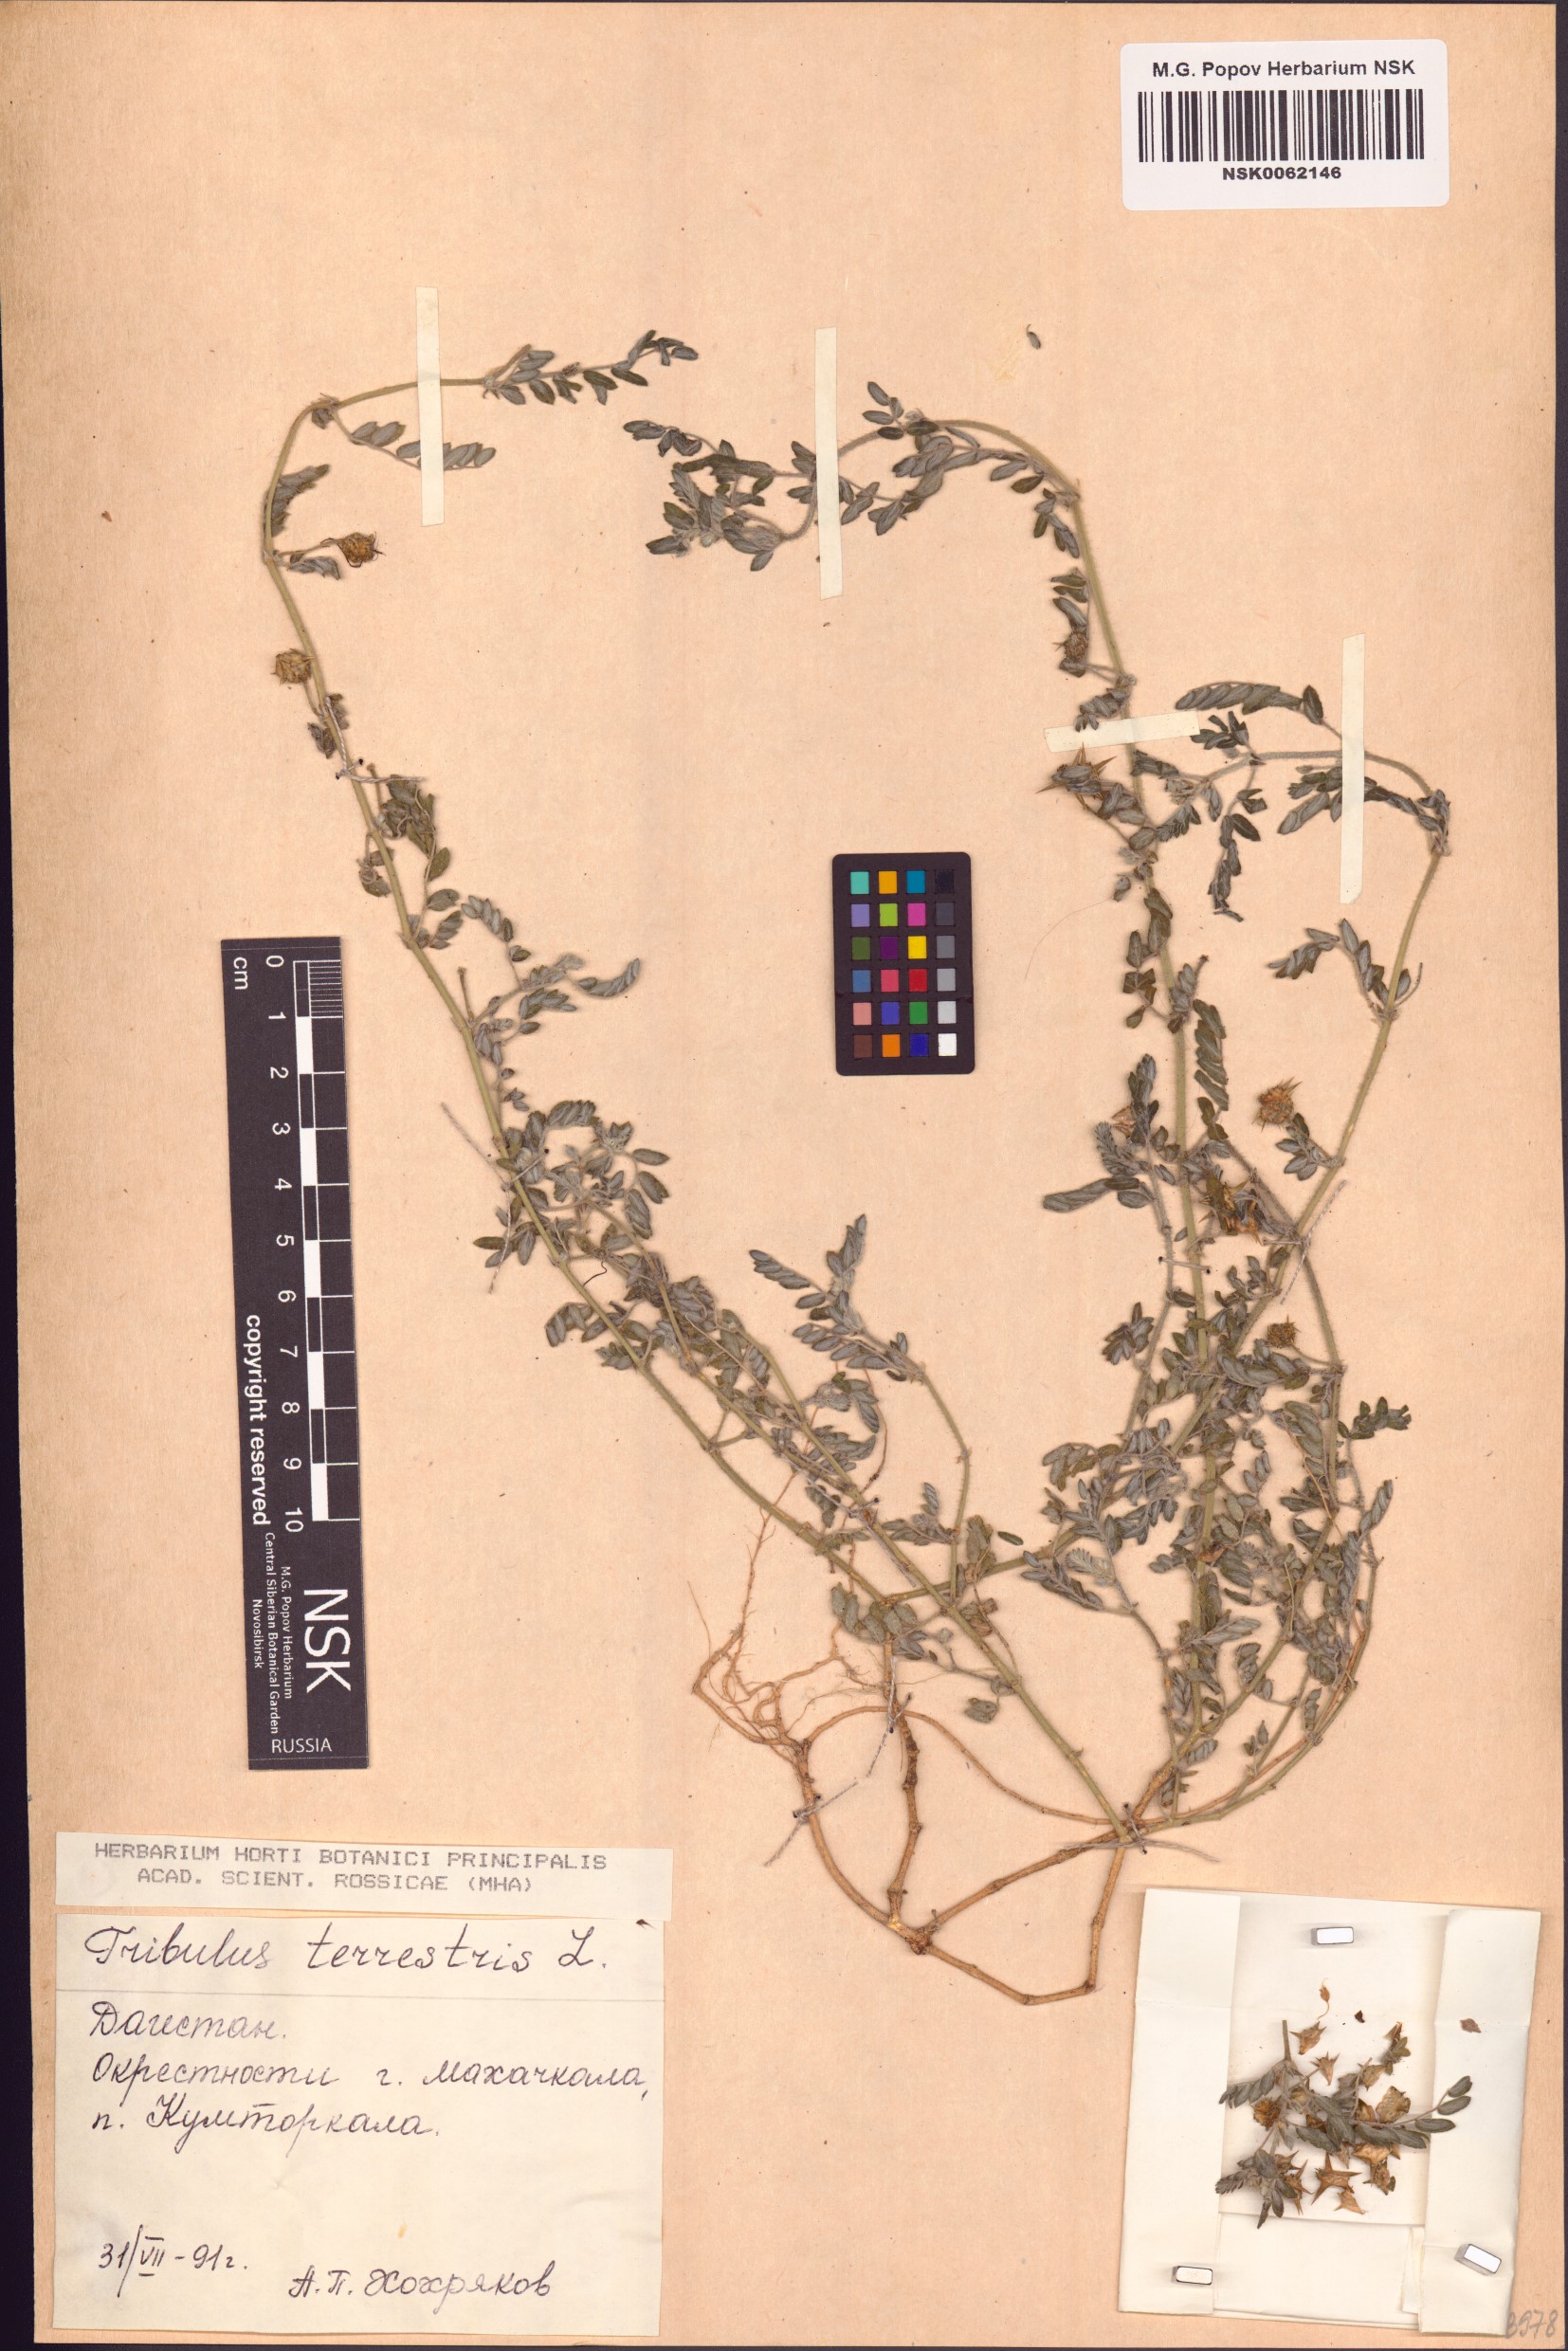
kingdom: Plantae
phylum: Tracheophyta
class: Magnoliopsida
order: Zygophyllales
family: Zygophyllaceae
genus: Tribulus
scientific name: Tribulus terrestris
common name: Puncturevine
